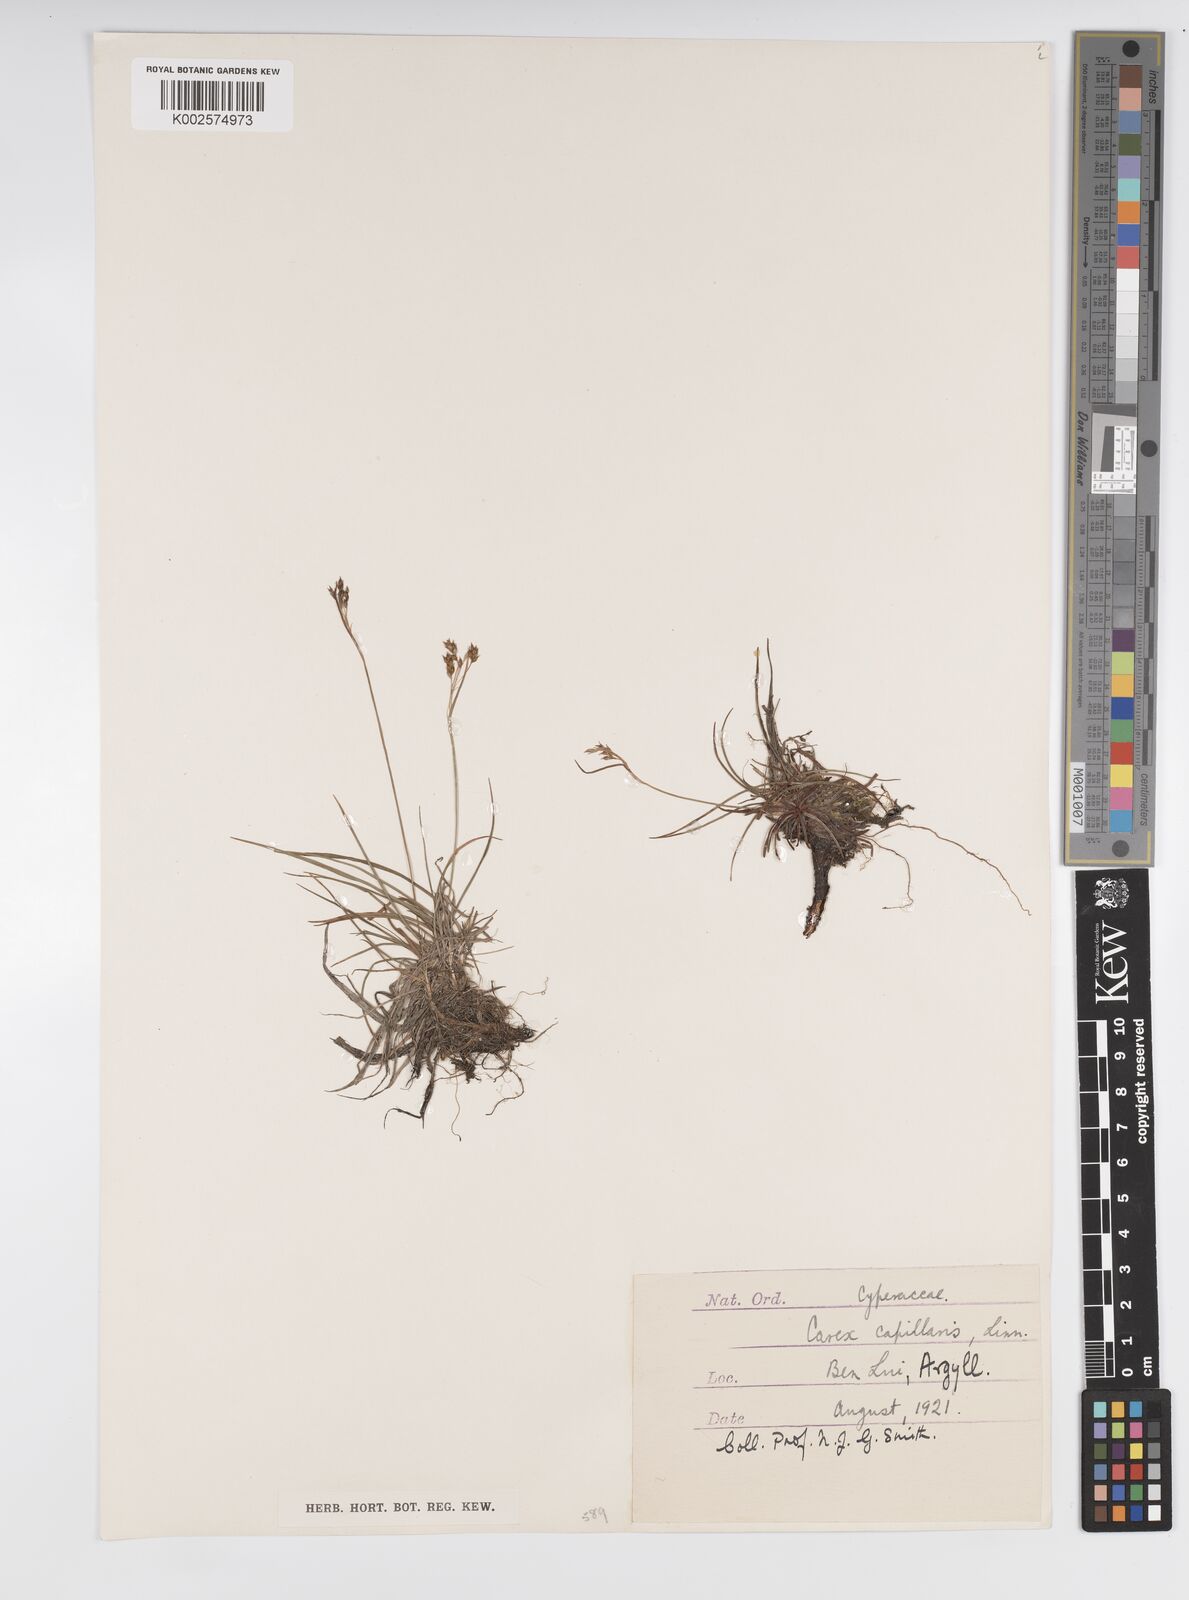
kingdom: Plantae
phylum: Tracheophyta
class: Liliopsida
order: Poales
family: Cyperaceae
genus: Carex
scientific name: Carex capillaris
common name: Hair sedge
